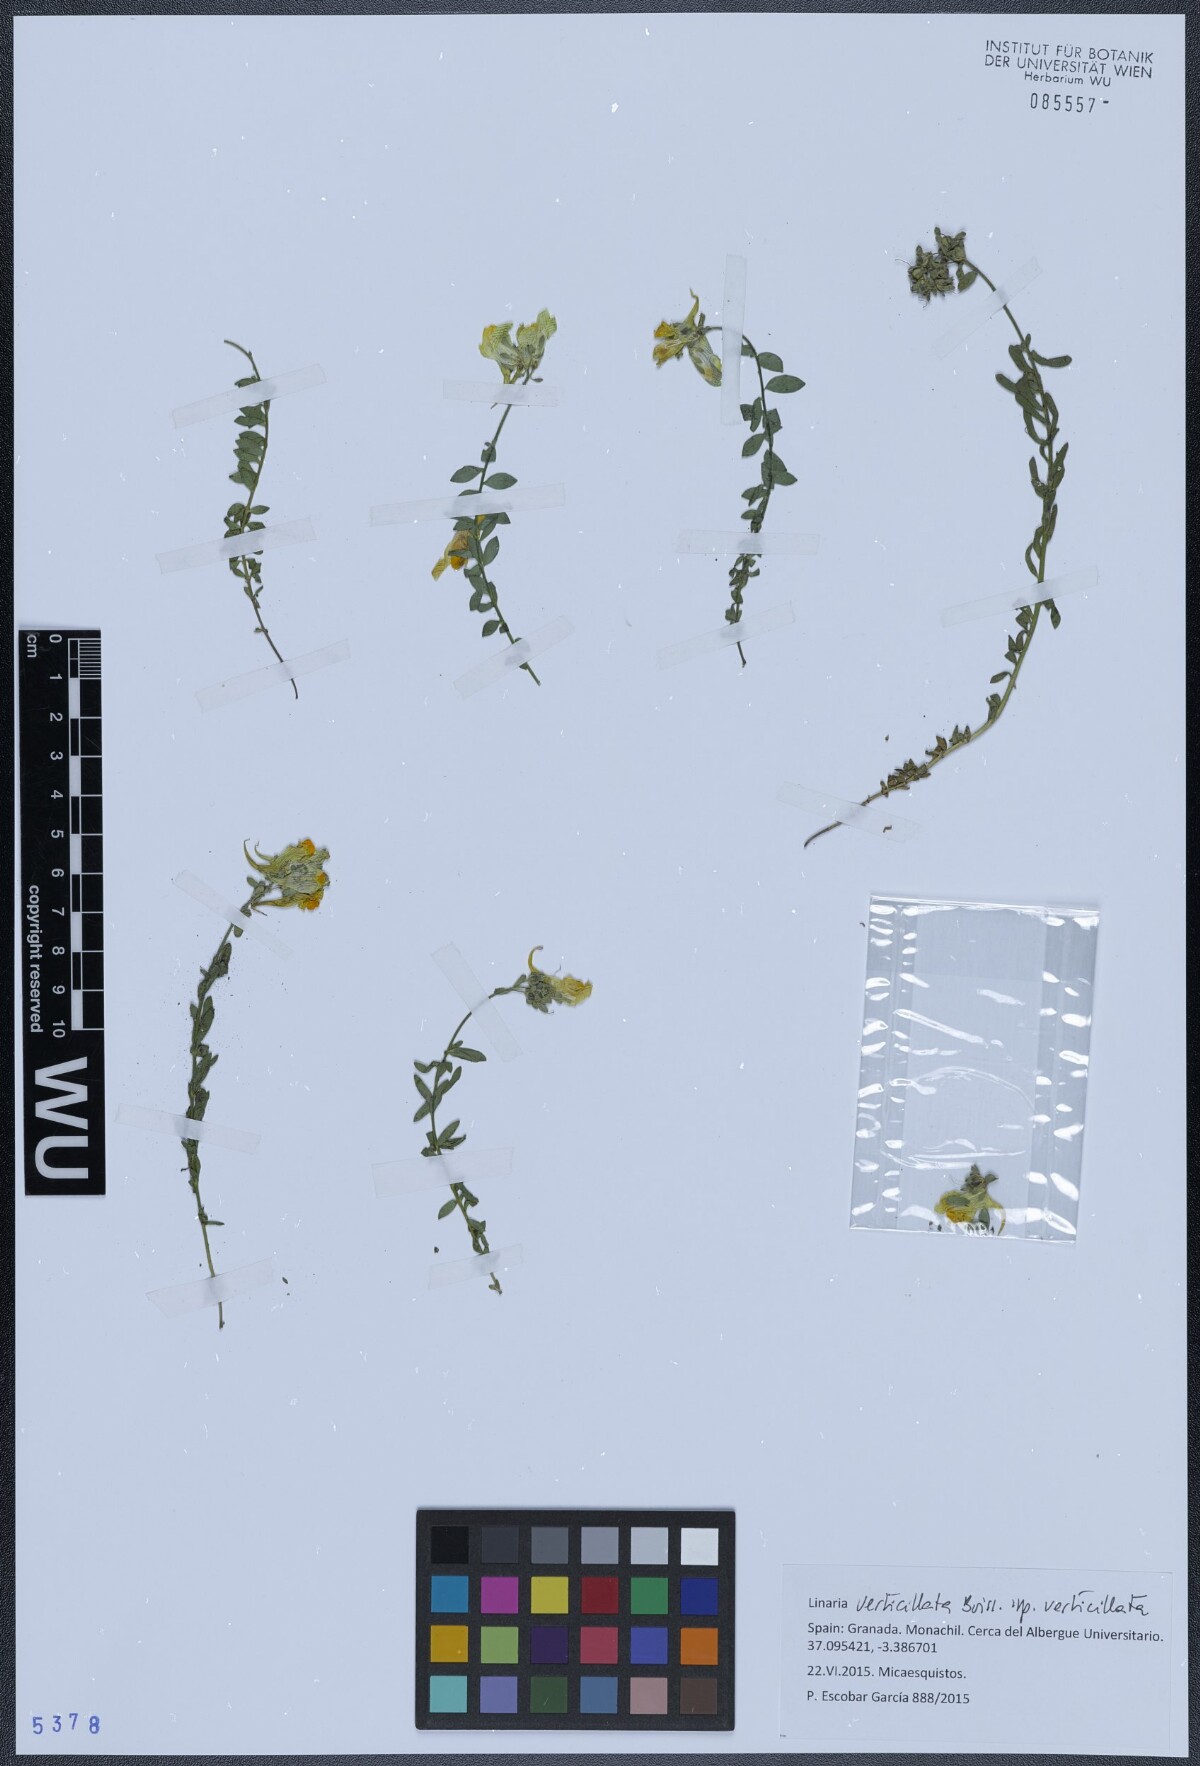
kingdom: Plantae
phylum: Tracheophyta
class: Magnoliopsida
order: Lamiales
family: Plantaginaceae
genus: Linaria
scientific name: Linaria verticillata
